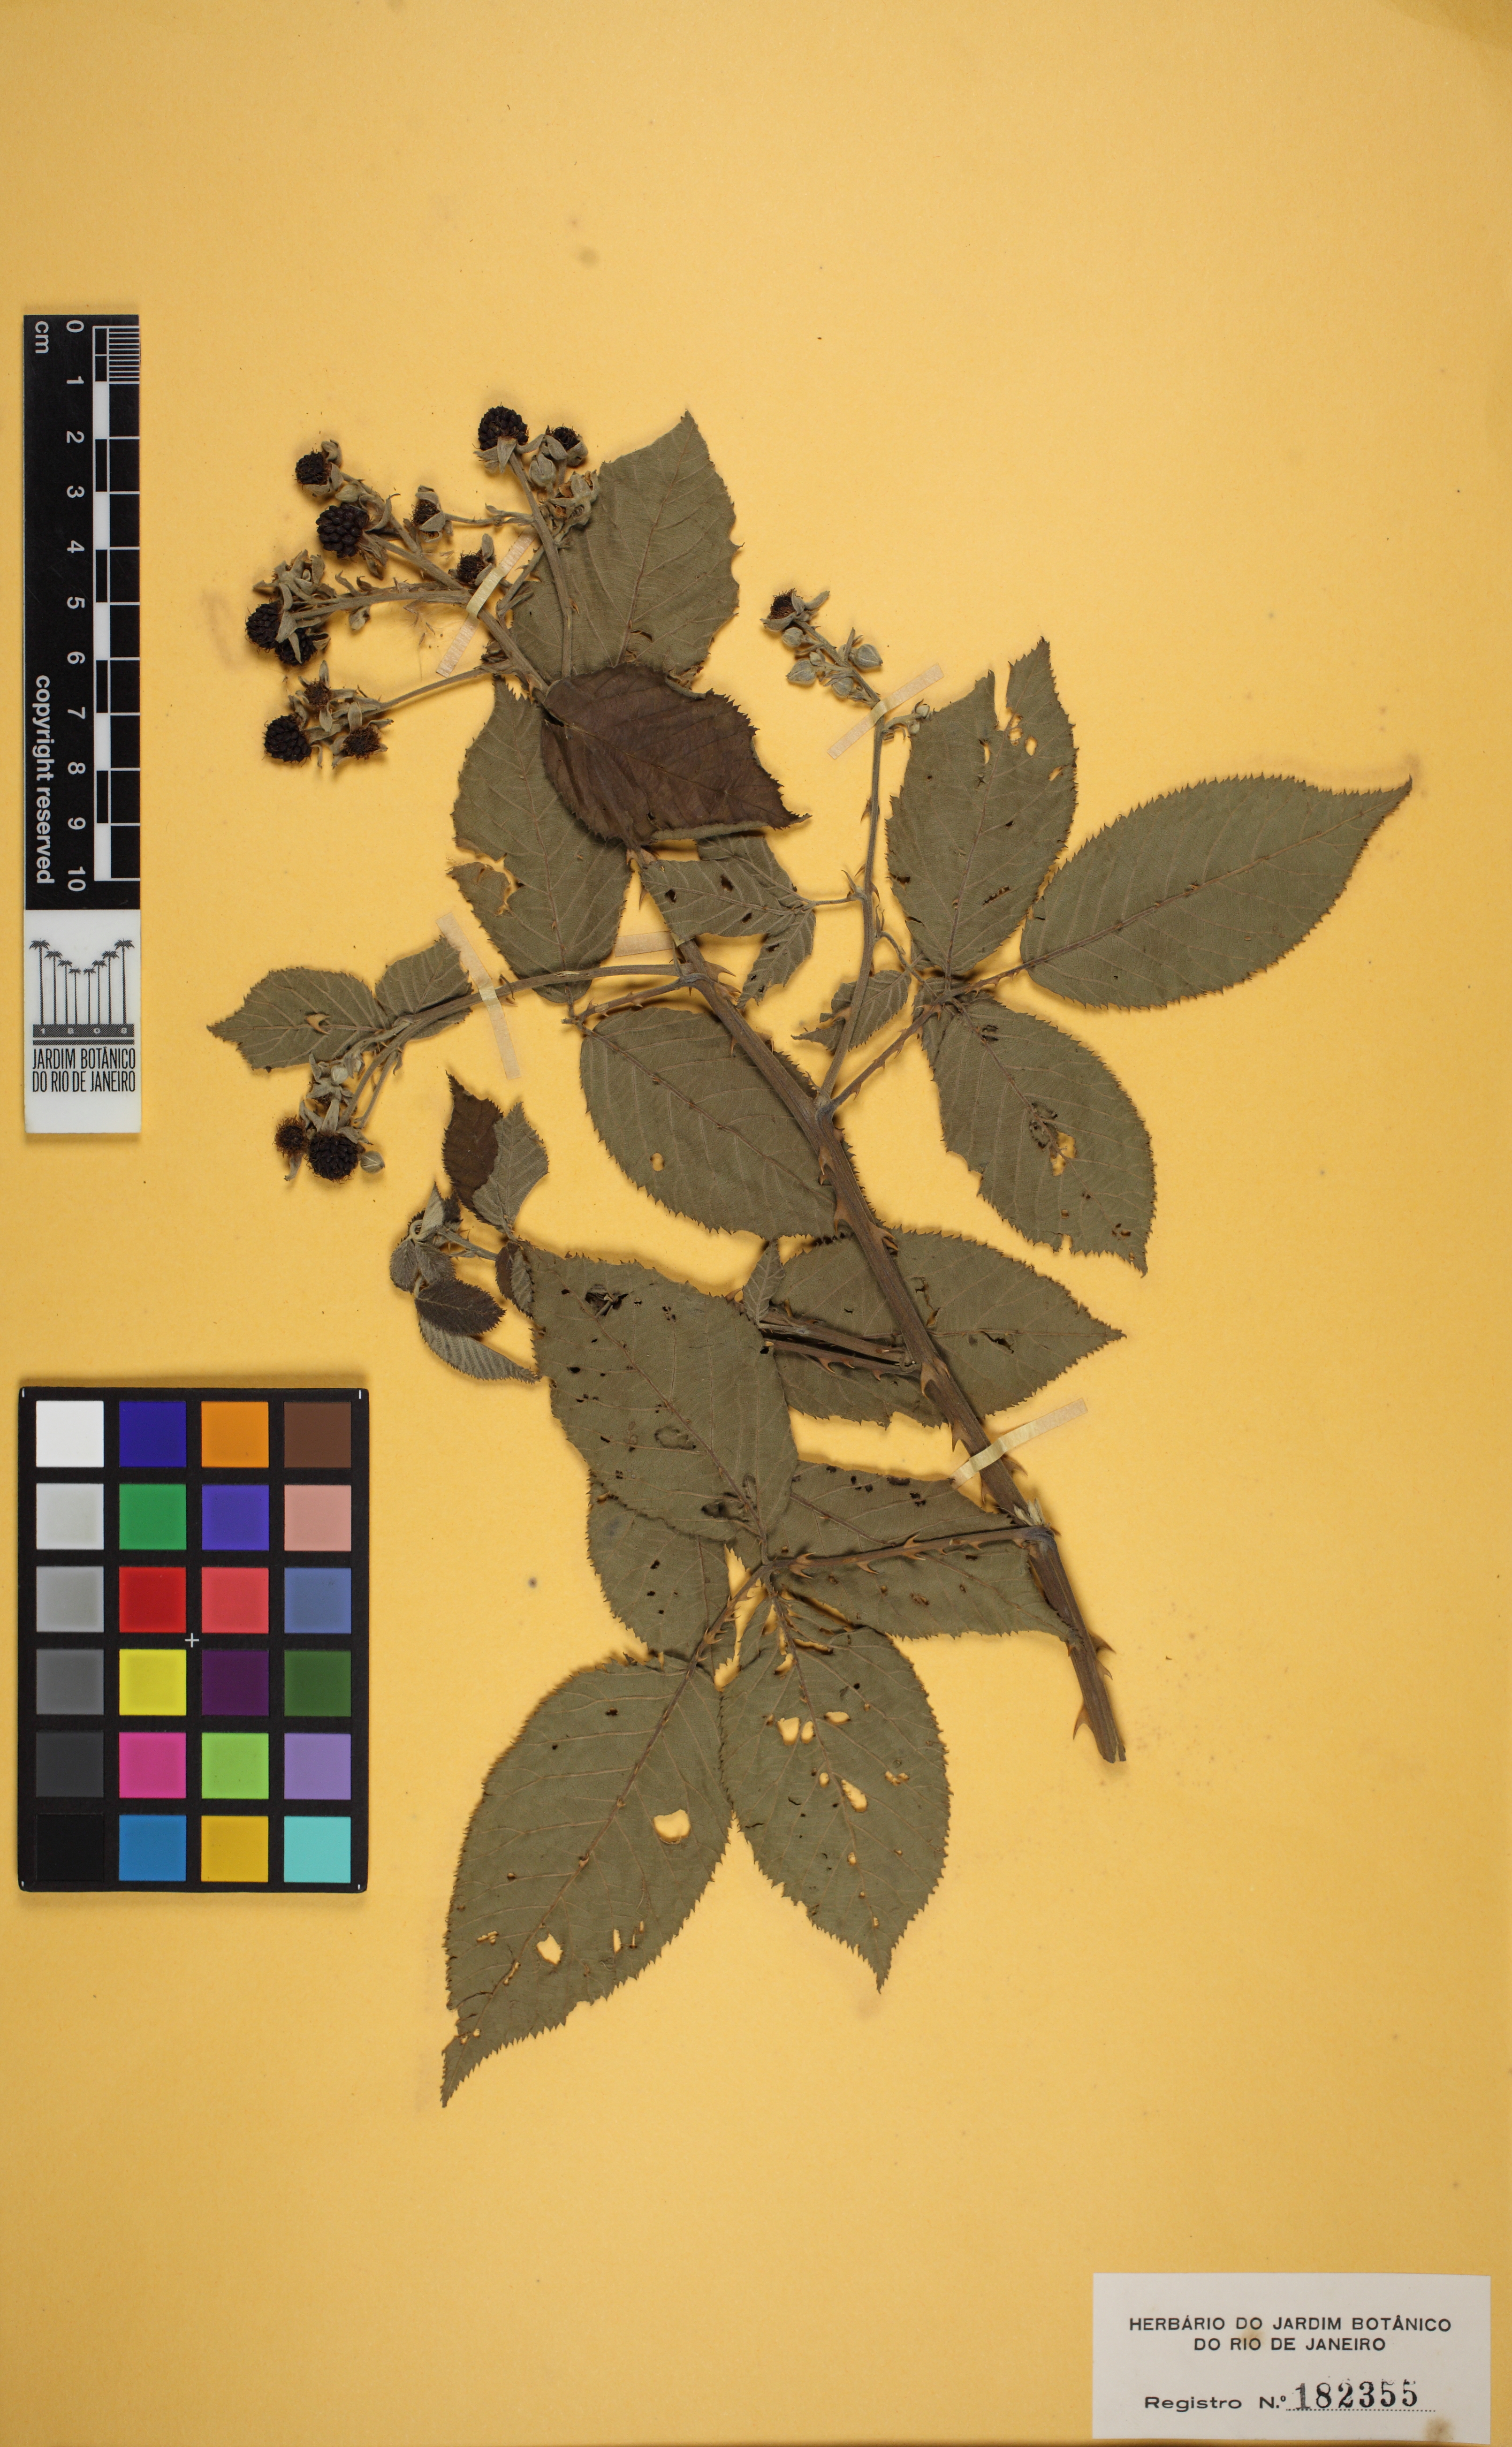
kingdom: Plantae
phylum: Tracheophyta
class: Magnoliopsida
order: Rosales
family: Rosaceae
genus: Rubus
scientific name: Rubus
